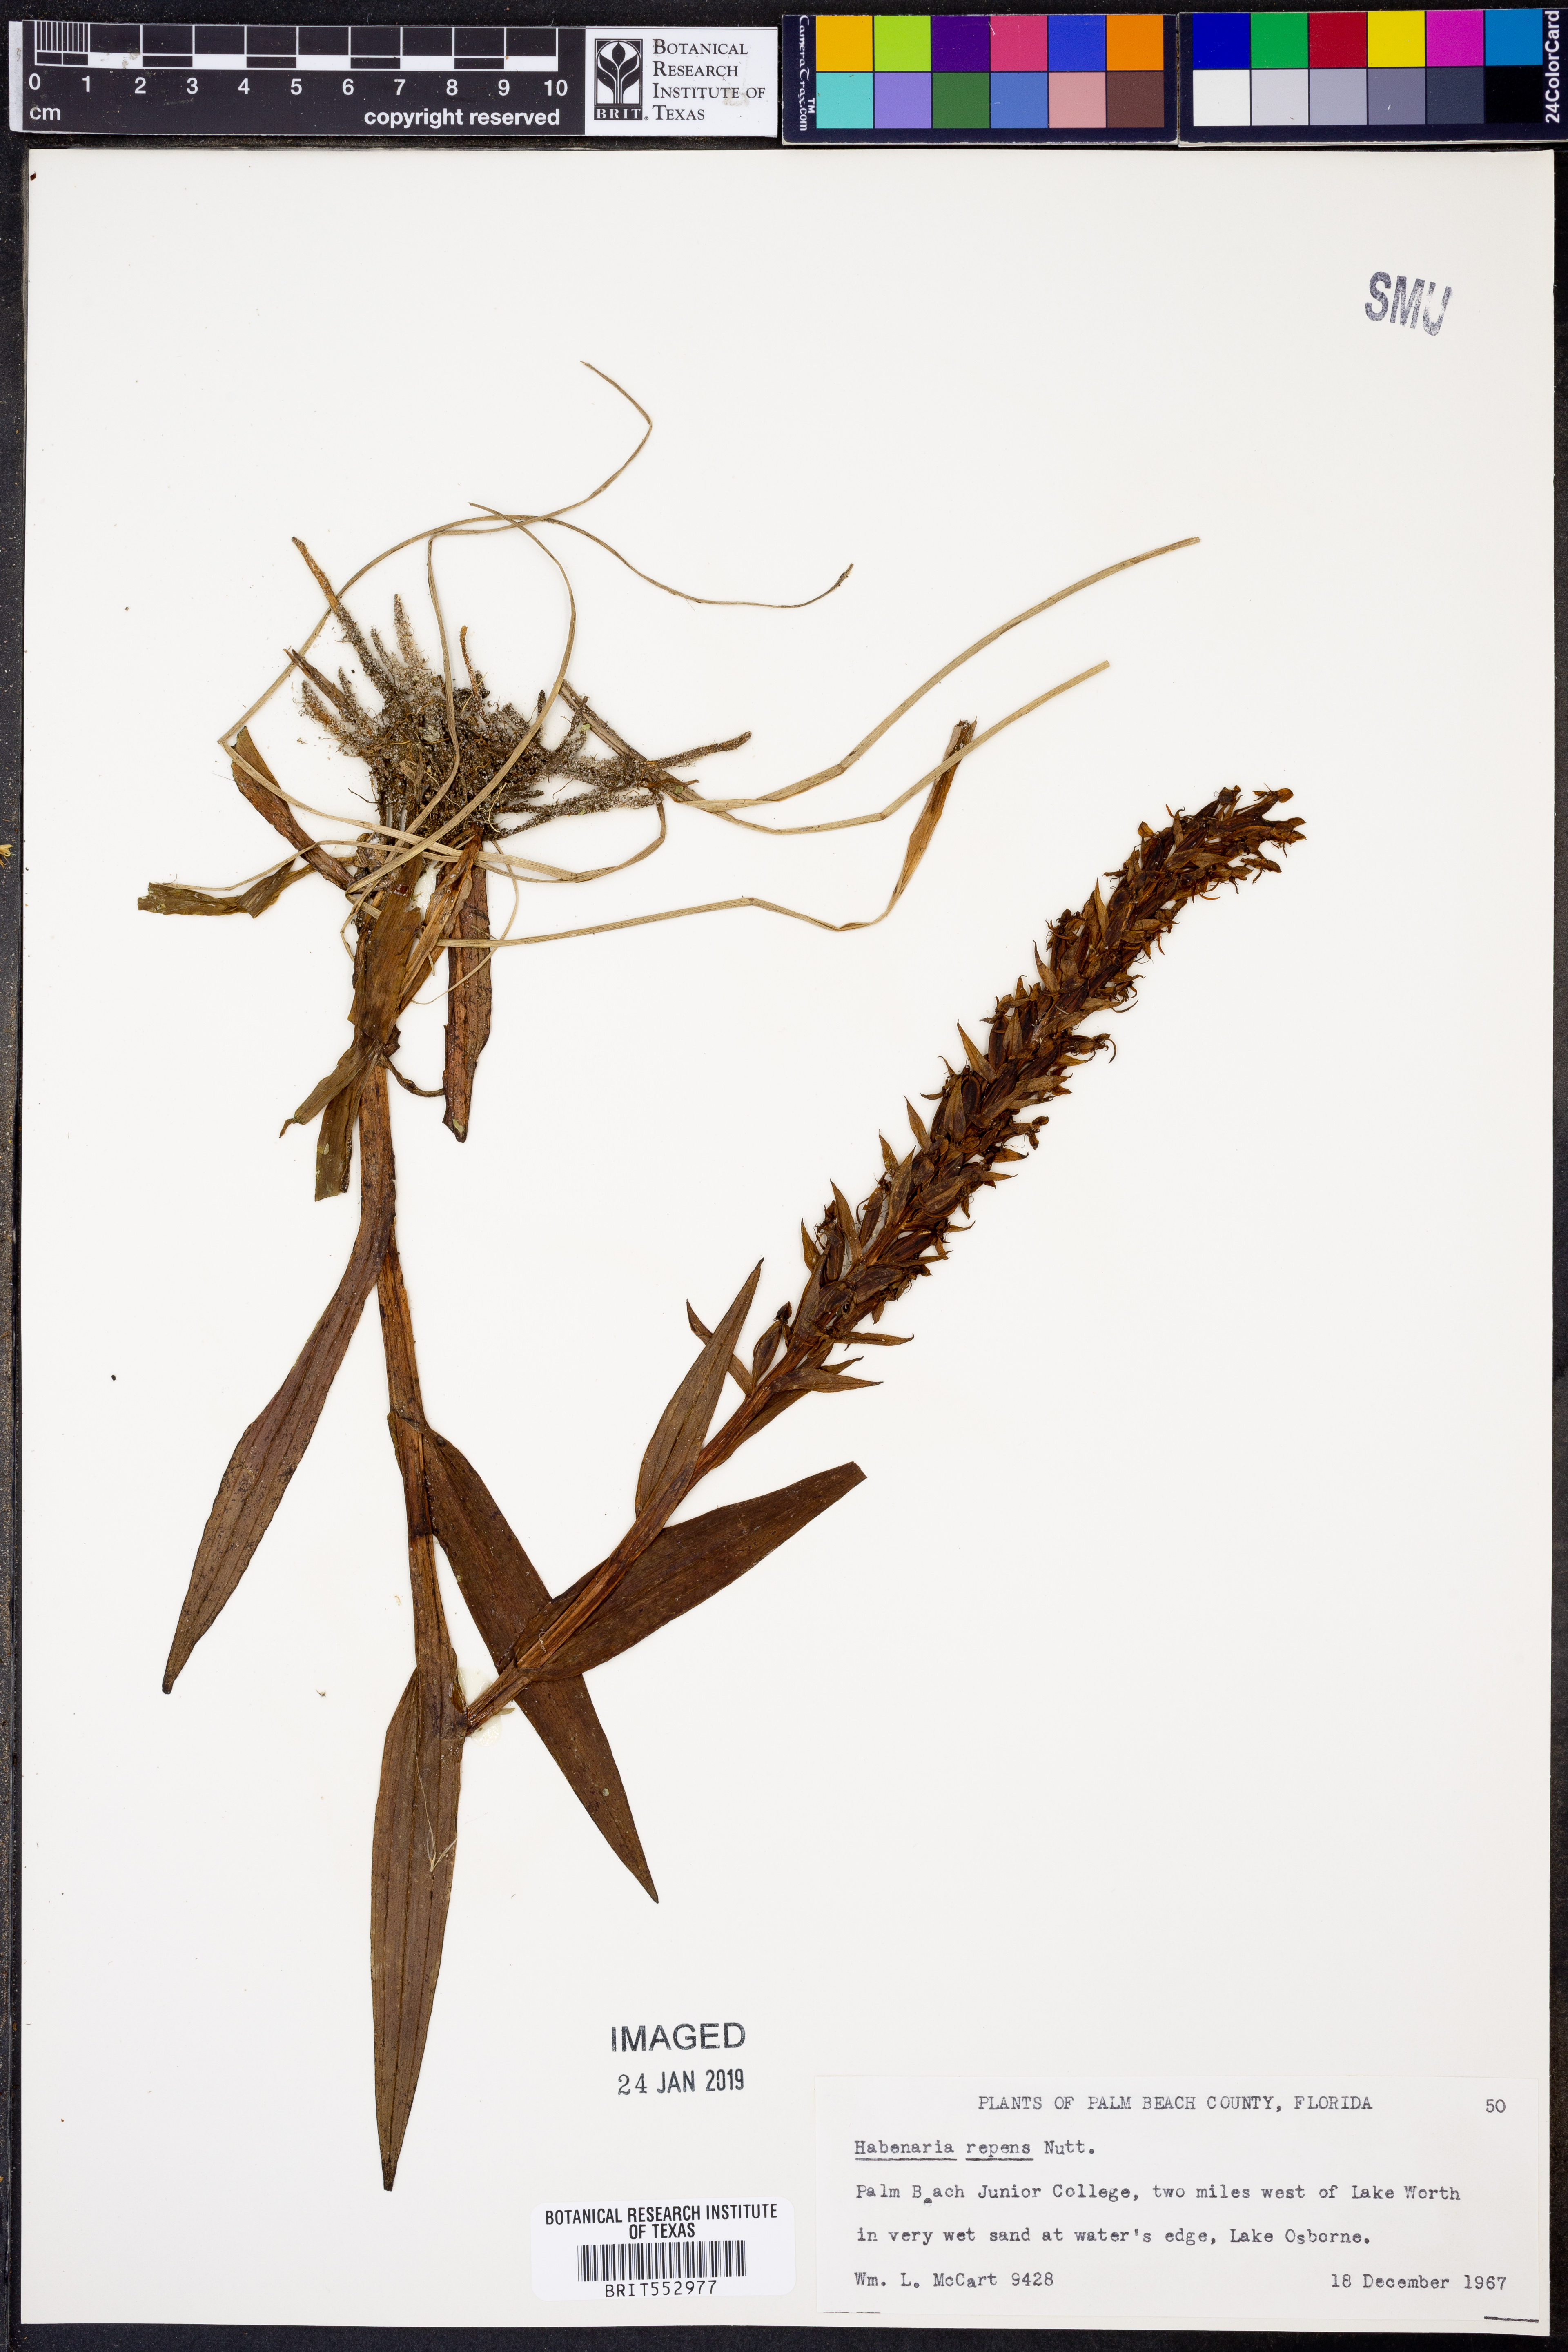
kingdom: Plantae
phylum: Tracheophyta
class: Liliopsida
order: Asparagales
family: Orchidaceae
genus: Habenaria
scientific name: Habenaria repens
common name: Water orchid
